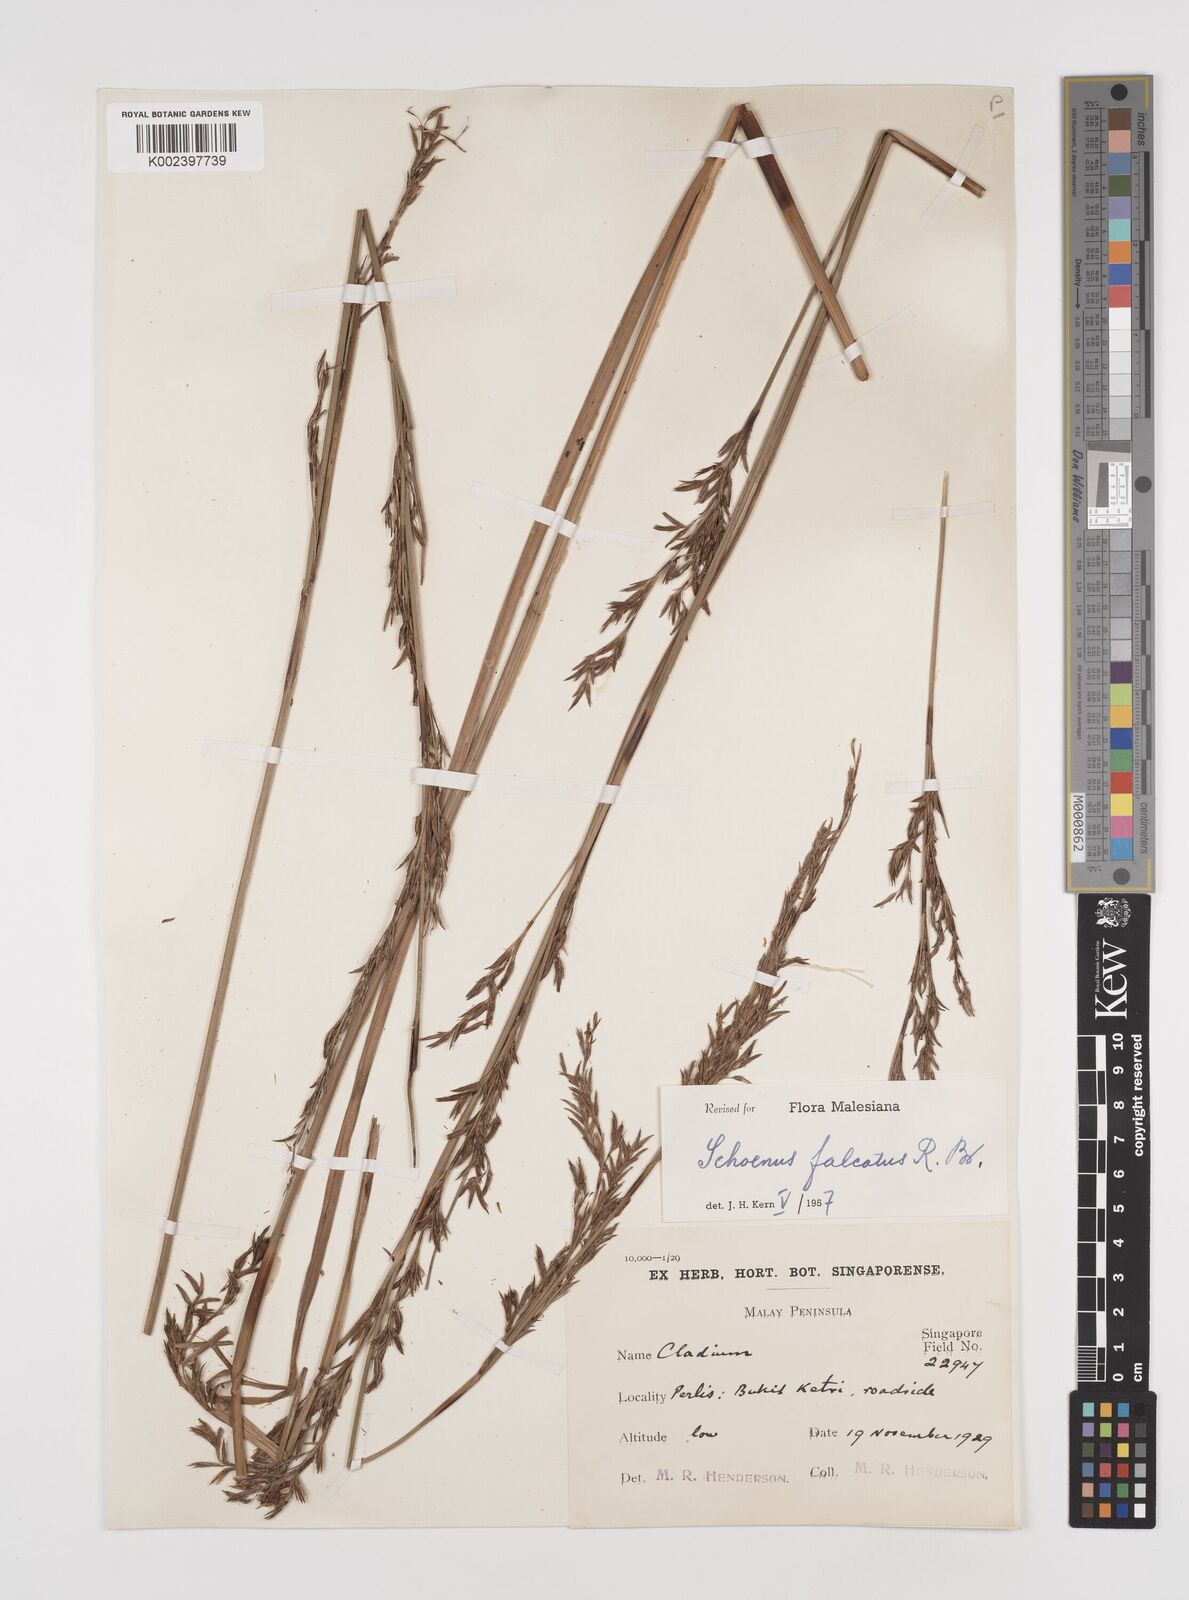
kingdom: Plantae
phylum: Tracheophyta
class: Liliopsida
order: Poales
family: Cyperaceae
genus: Schoenus
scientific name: Schoenus falcatus
